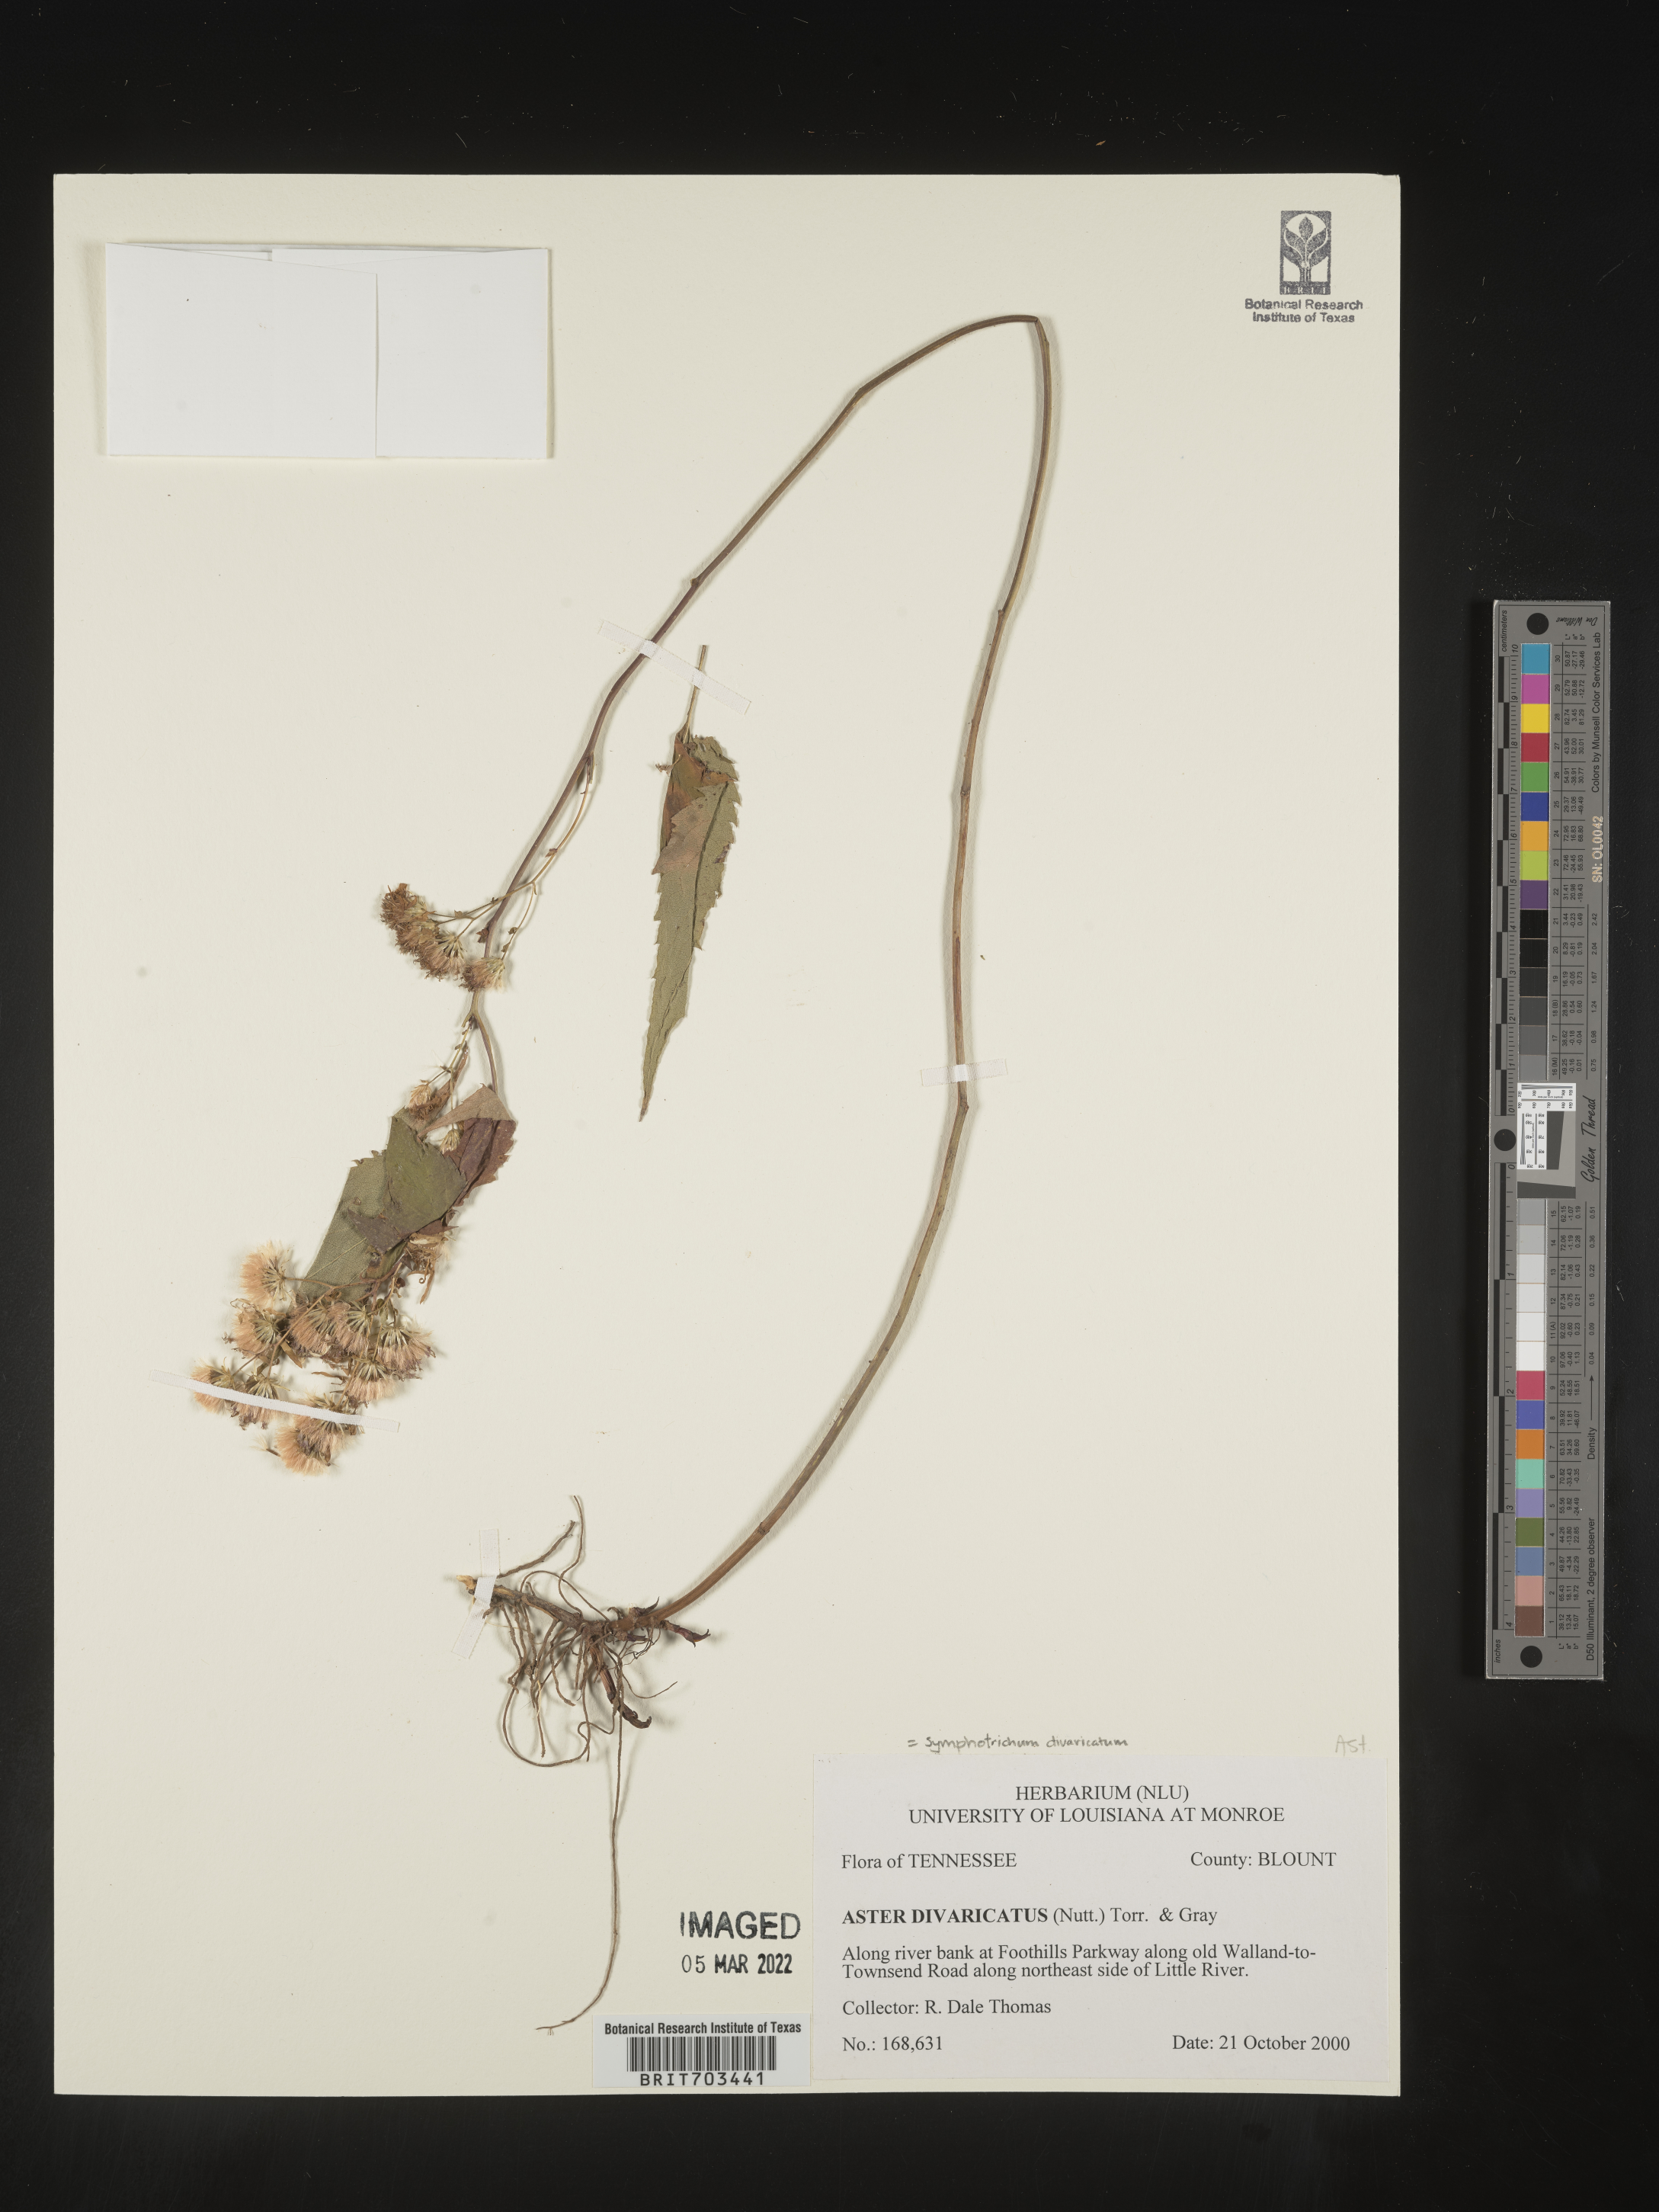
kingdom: Plantae
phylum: Tracheophyta
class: Magnoliopsida
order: Asterales
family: Asteraceae
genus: Eurybia
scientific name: Eurybia divaricata
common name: White wood aster
